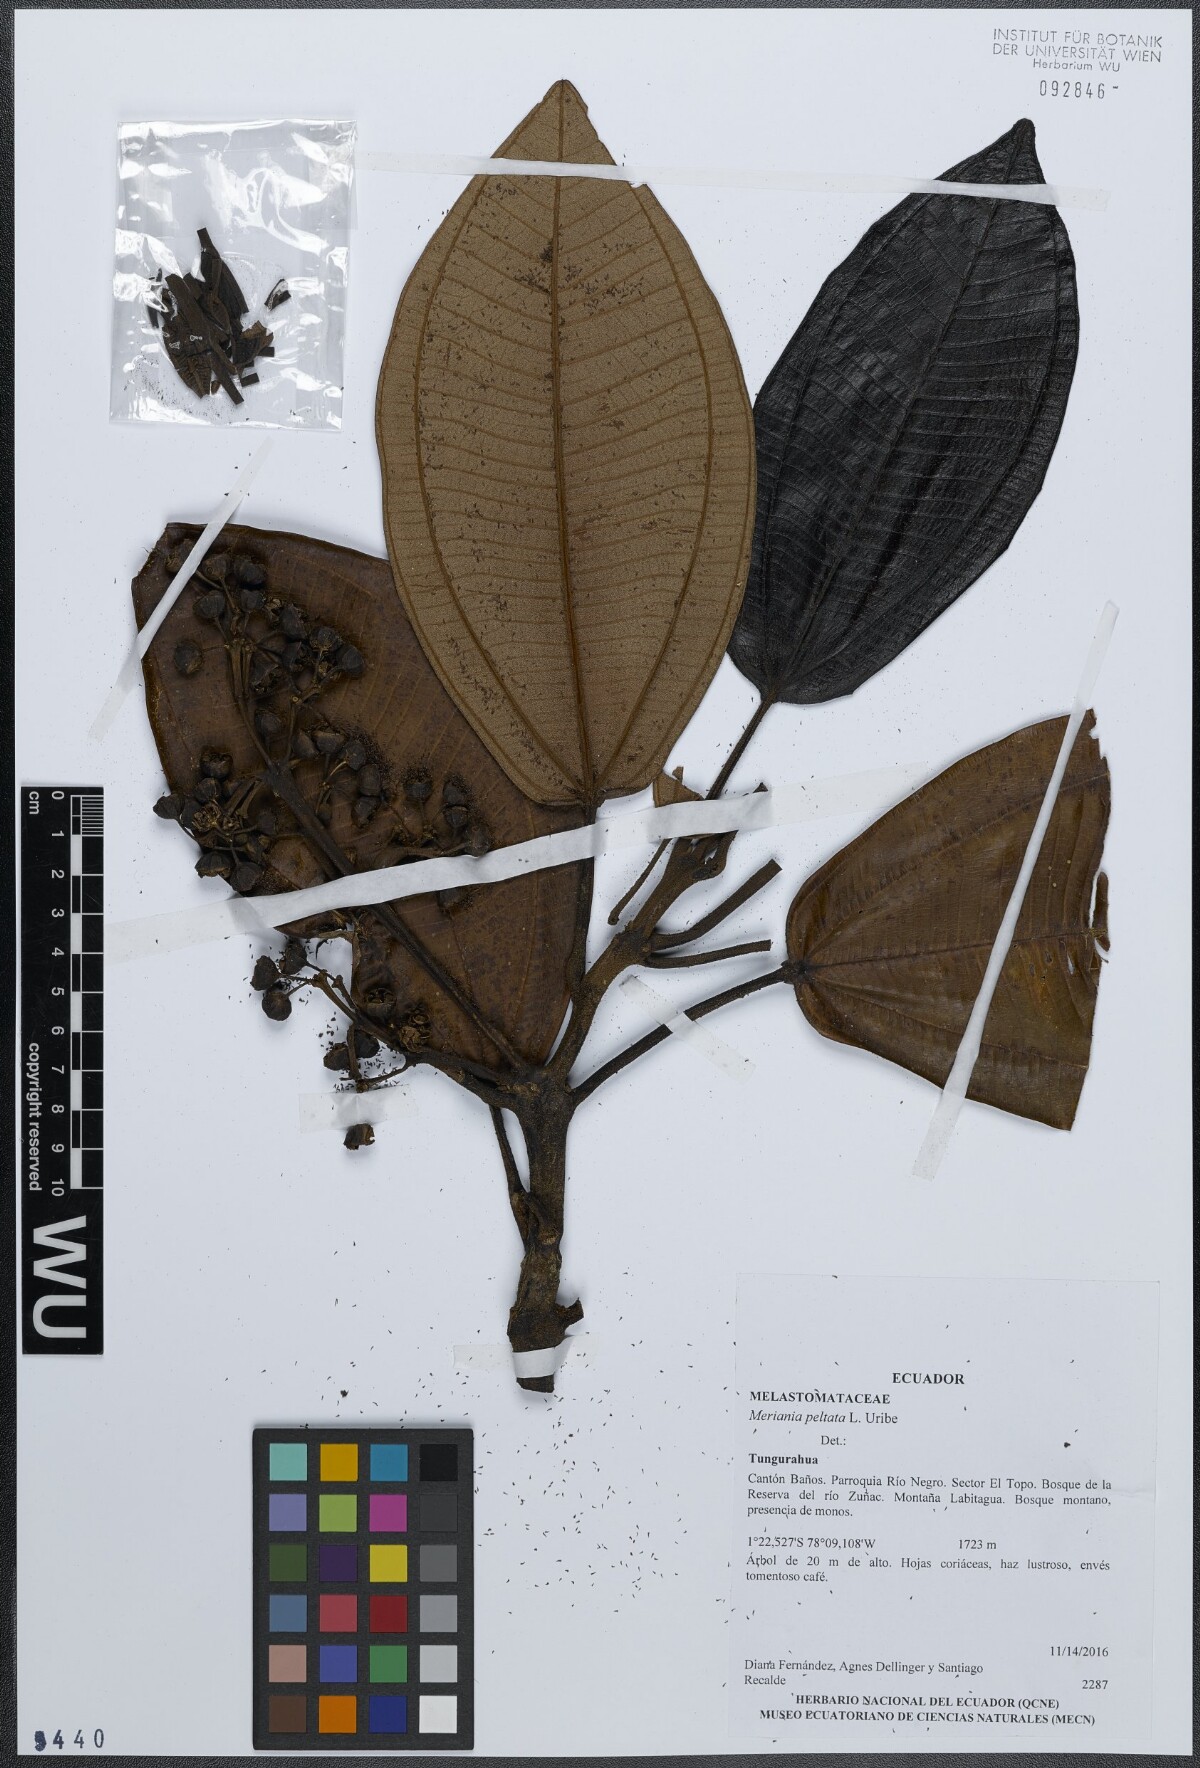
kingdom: Plantae
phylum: Tracheophyta
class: Magnoliopsida
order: Myrtales
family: Melastomataceae
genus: Meriania
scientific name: Meriania macrophylla
